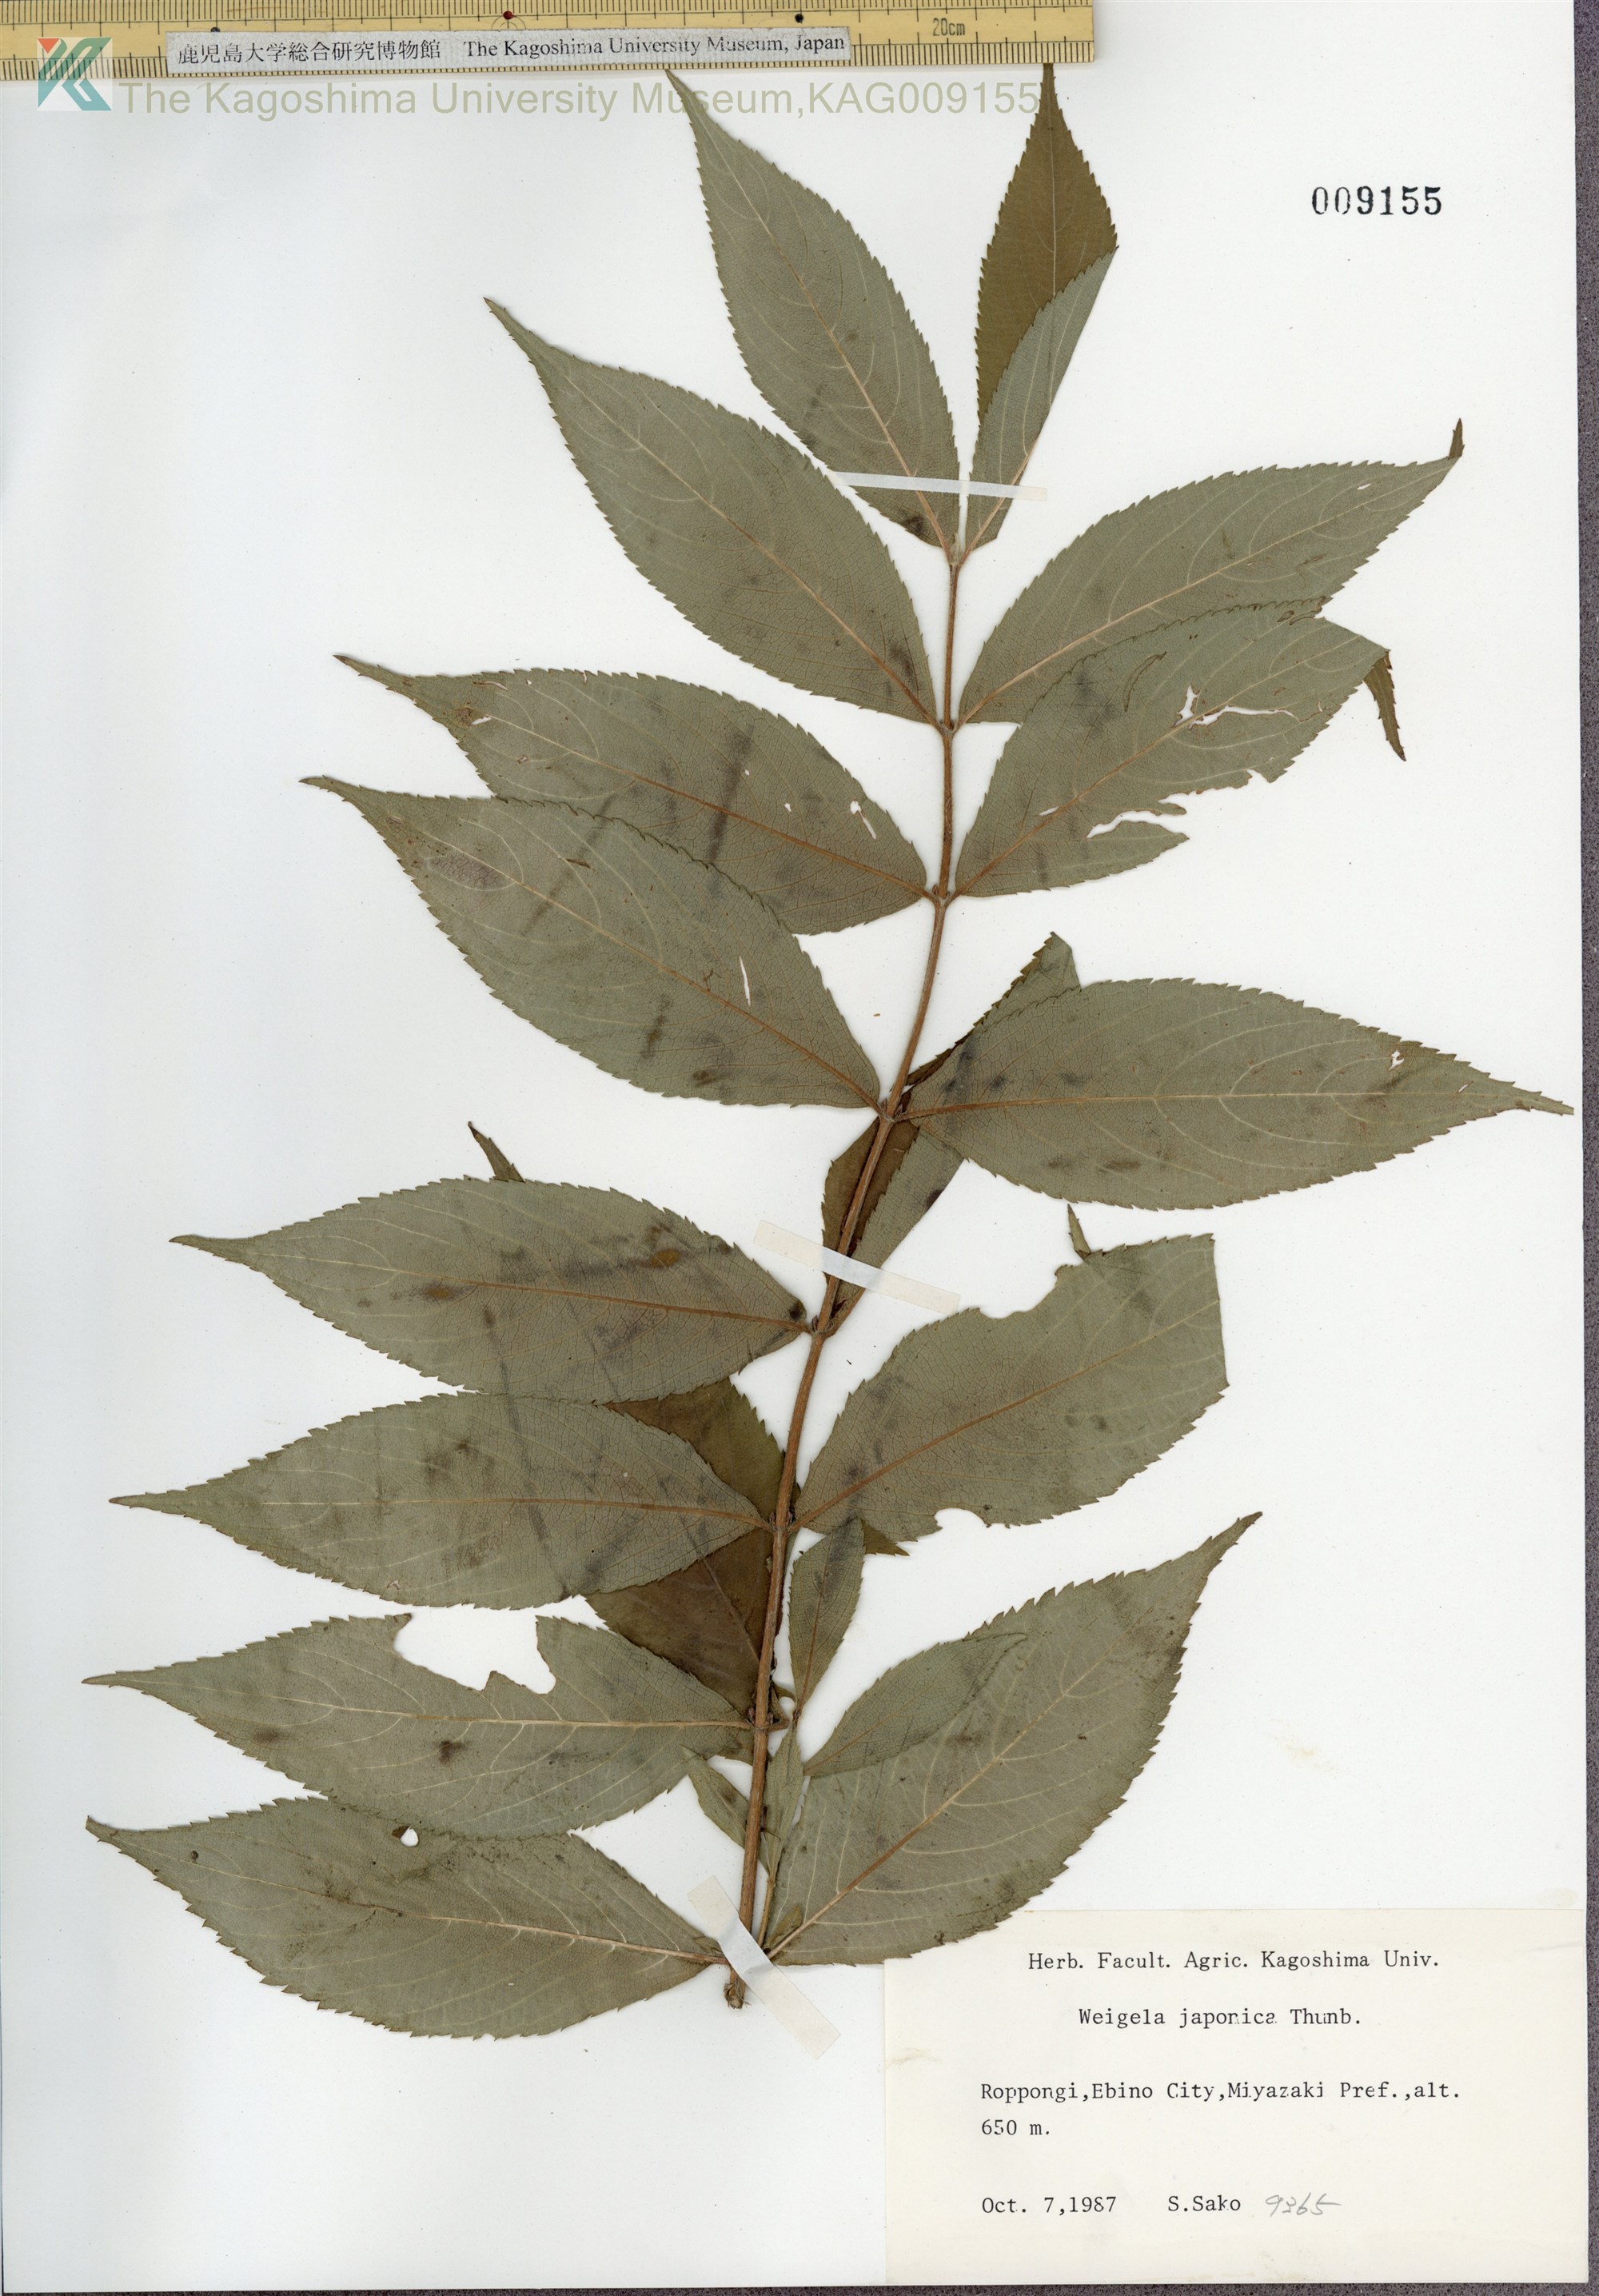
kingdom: Plantae
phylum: Tracheophyta
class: Magnoliopsida
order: Dipsacales
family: Caprifoliaceae
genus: Weigela
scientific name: Weigela japonica
